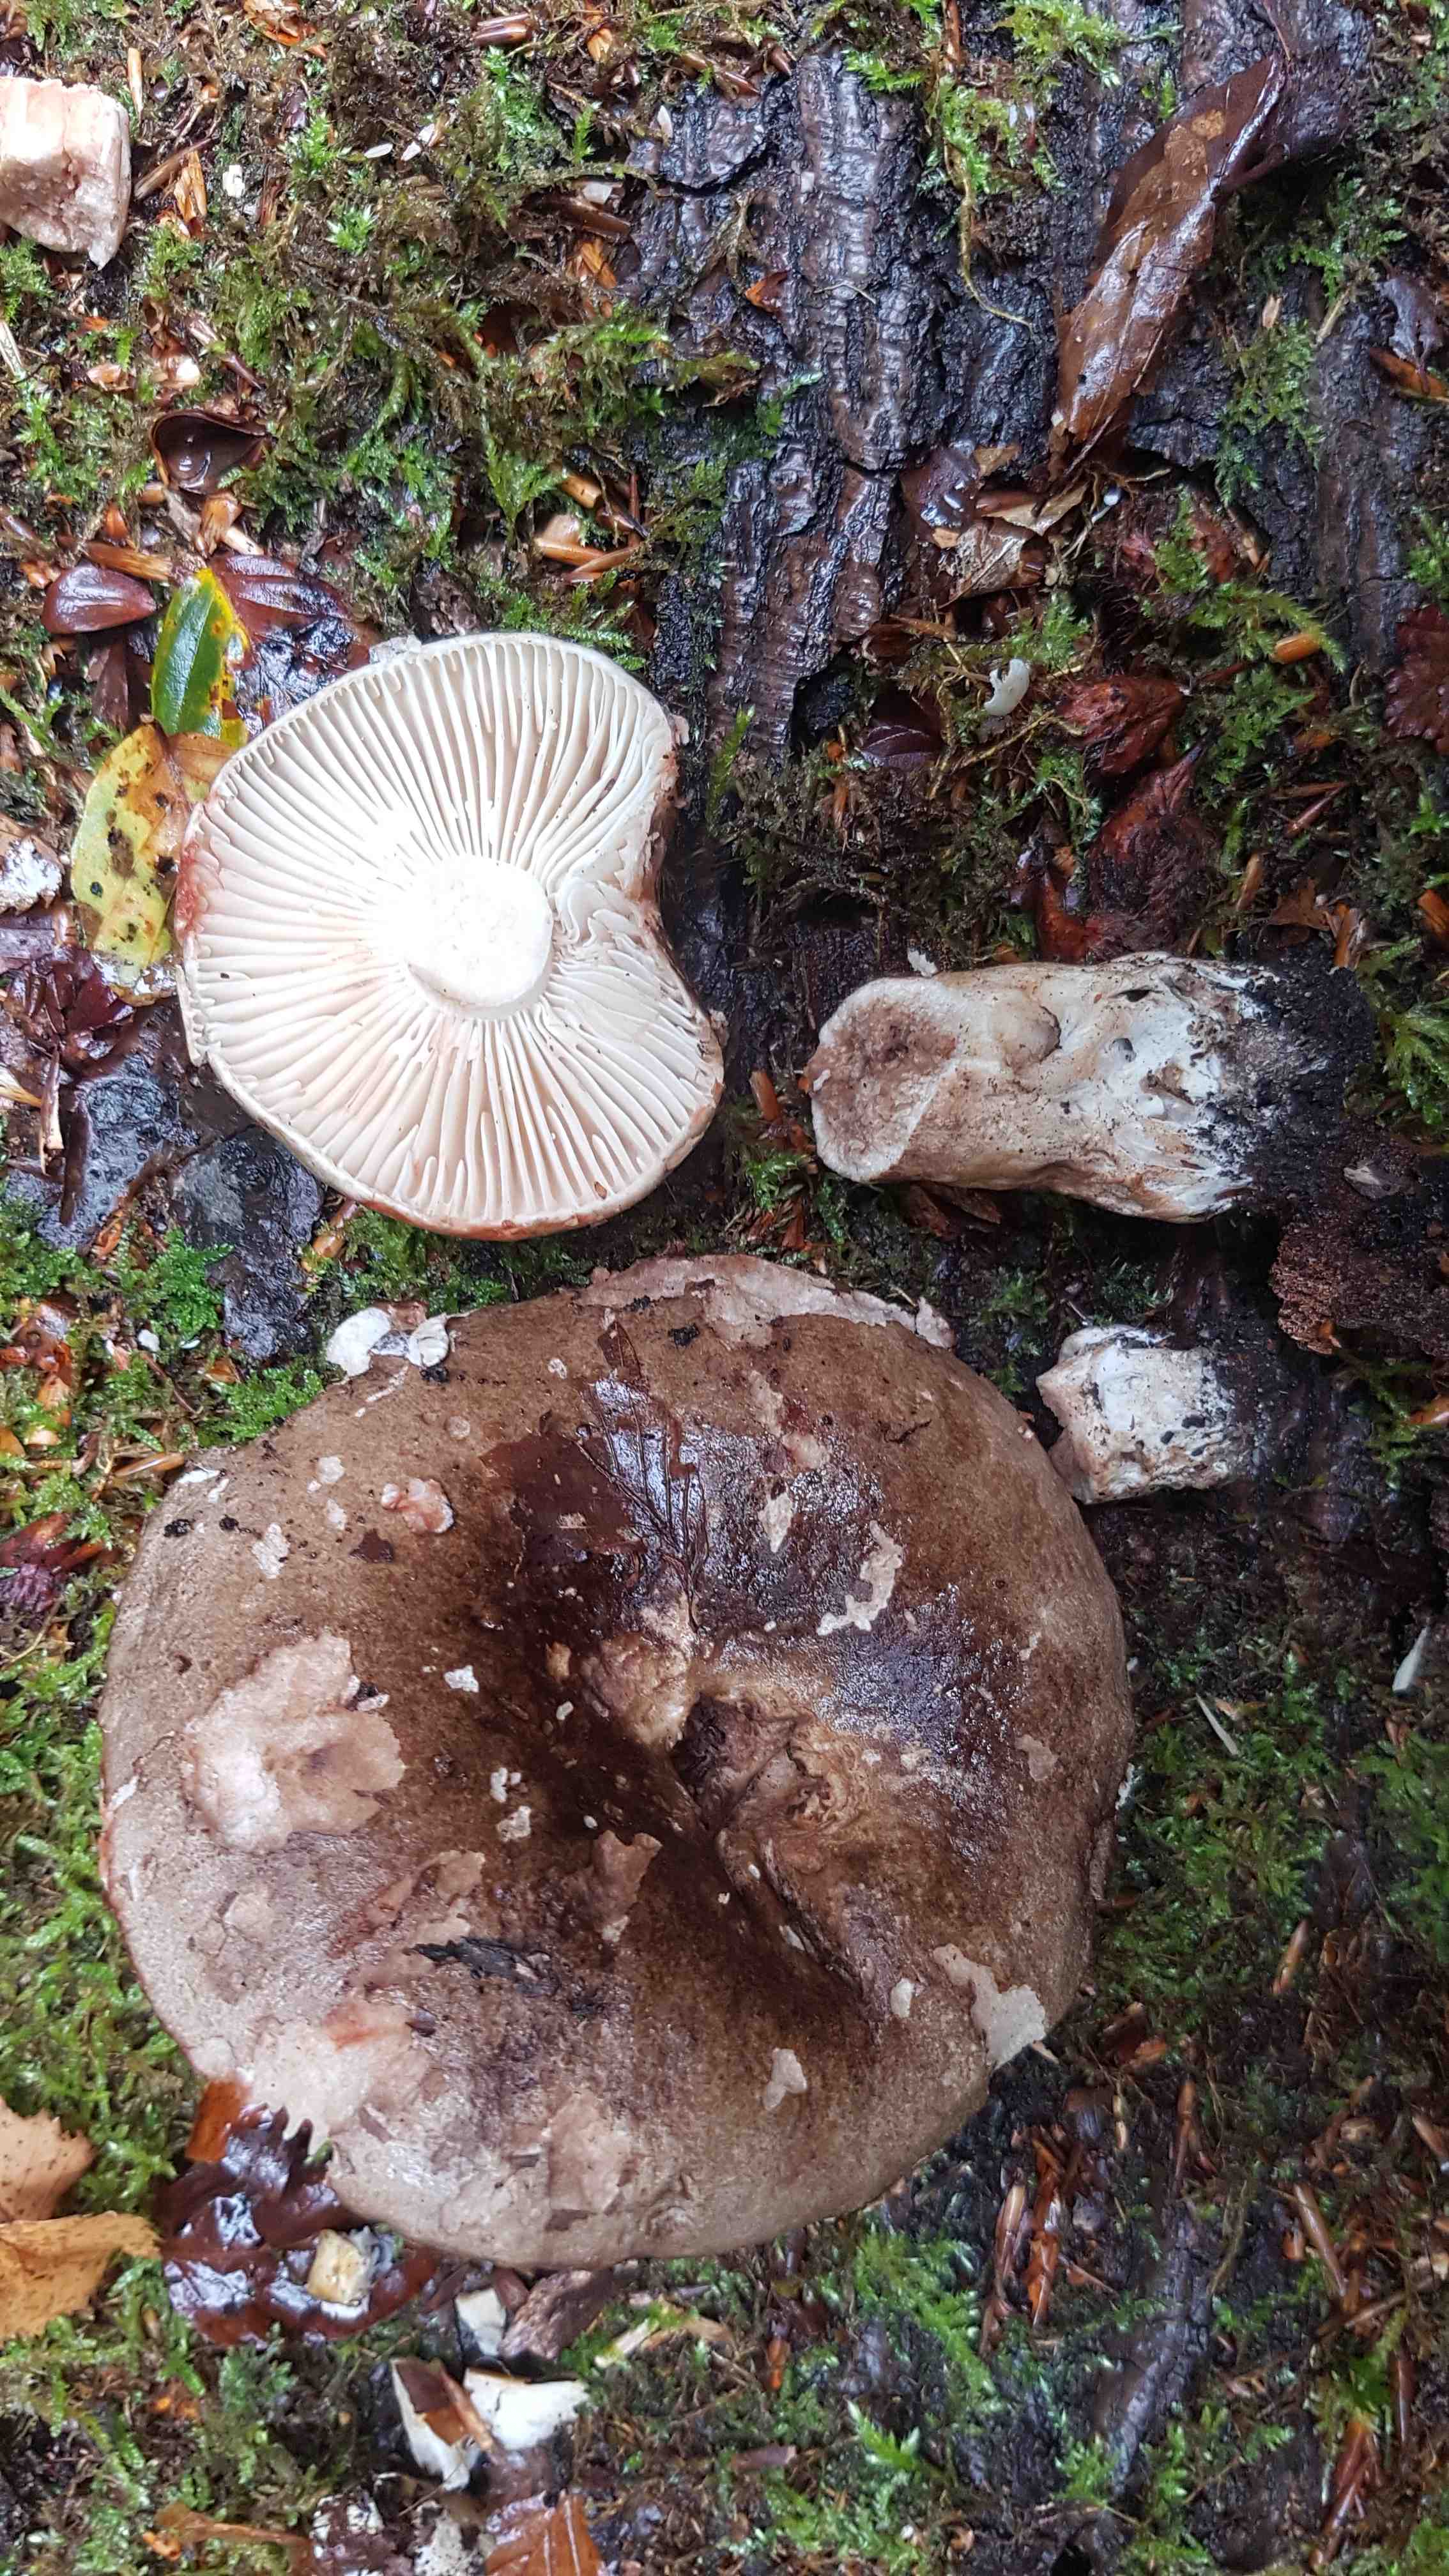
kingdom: Fungi
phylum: Basidiomycota
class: Agaricomycetes
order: Russulales
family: Russulaceae
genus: Russula
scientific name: Russula adusta
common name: sværtende skørhat
